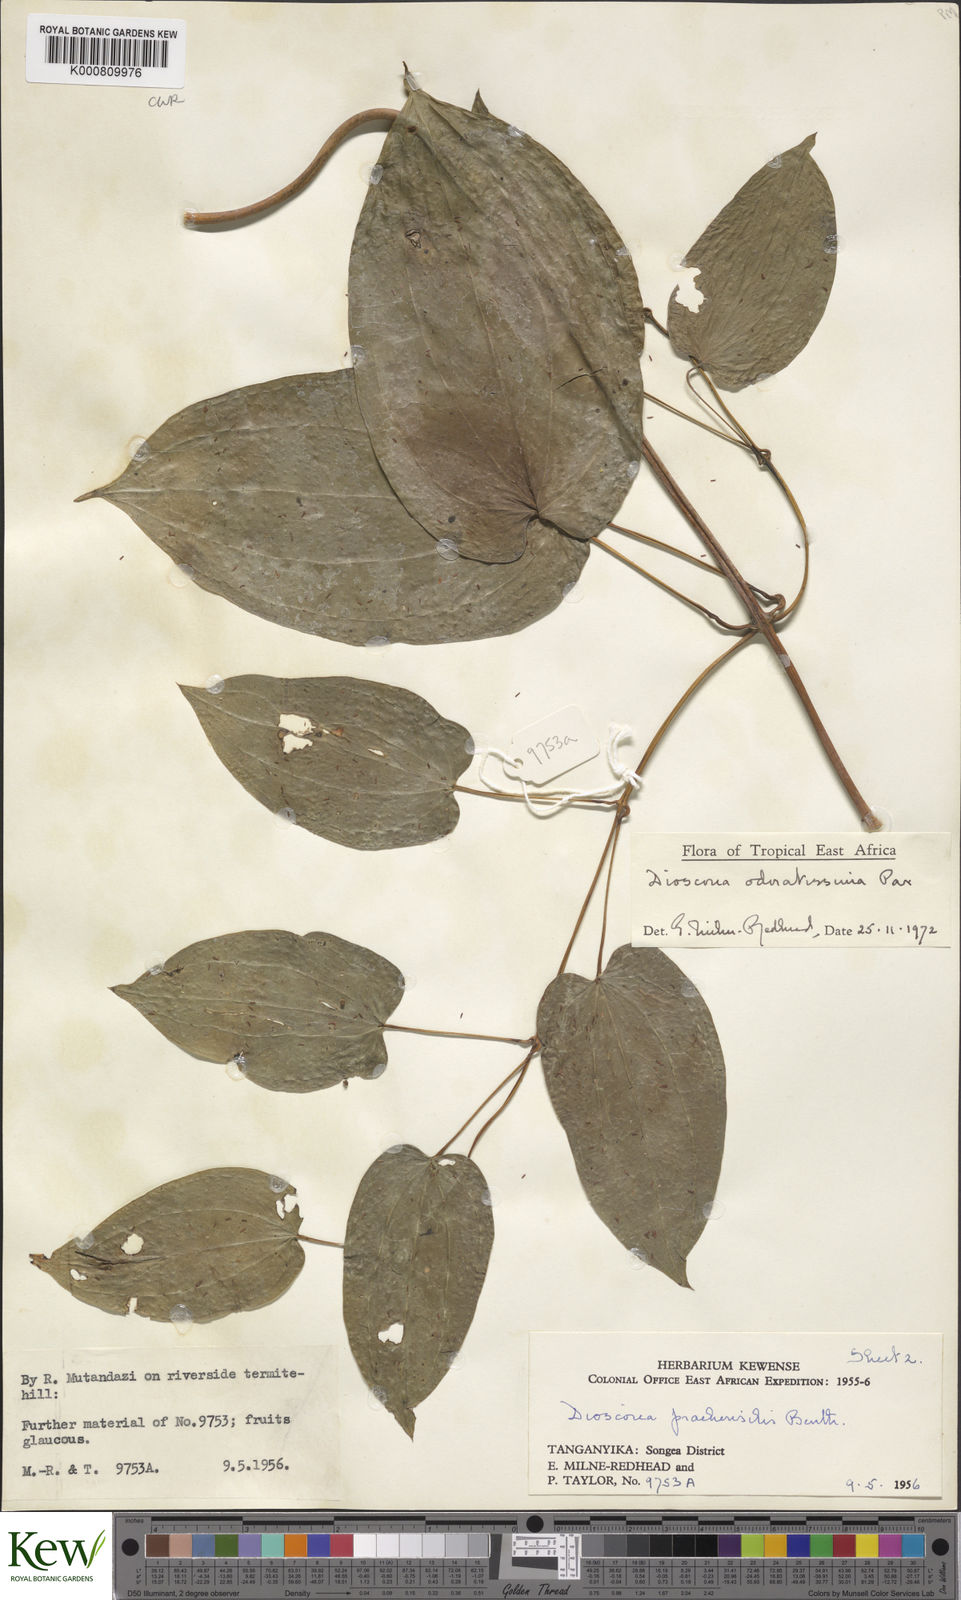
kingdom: Plantae
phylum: Tracheophyta
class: Liliopsida
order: Dioscoreales
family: Dioscoreaceae
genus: Dioscorea
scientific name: Dioscorea praehensilis
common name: Bush yam
